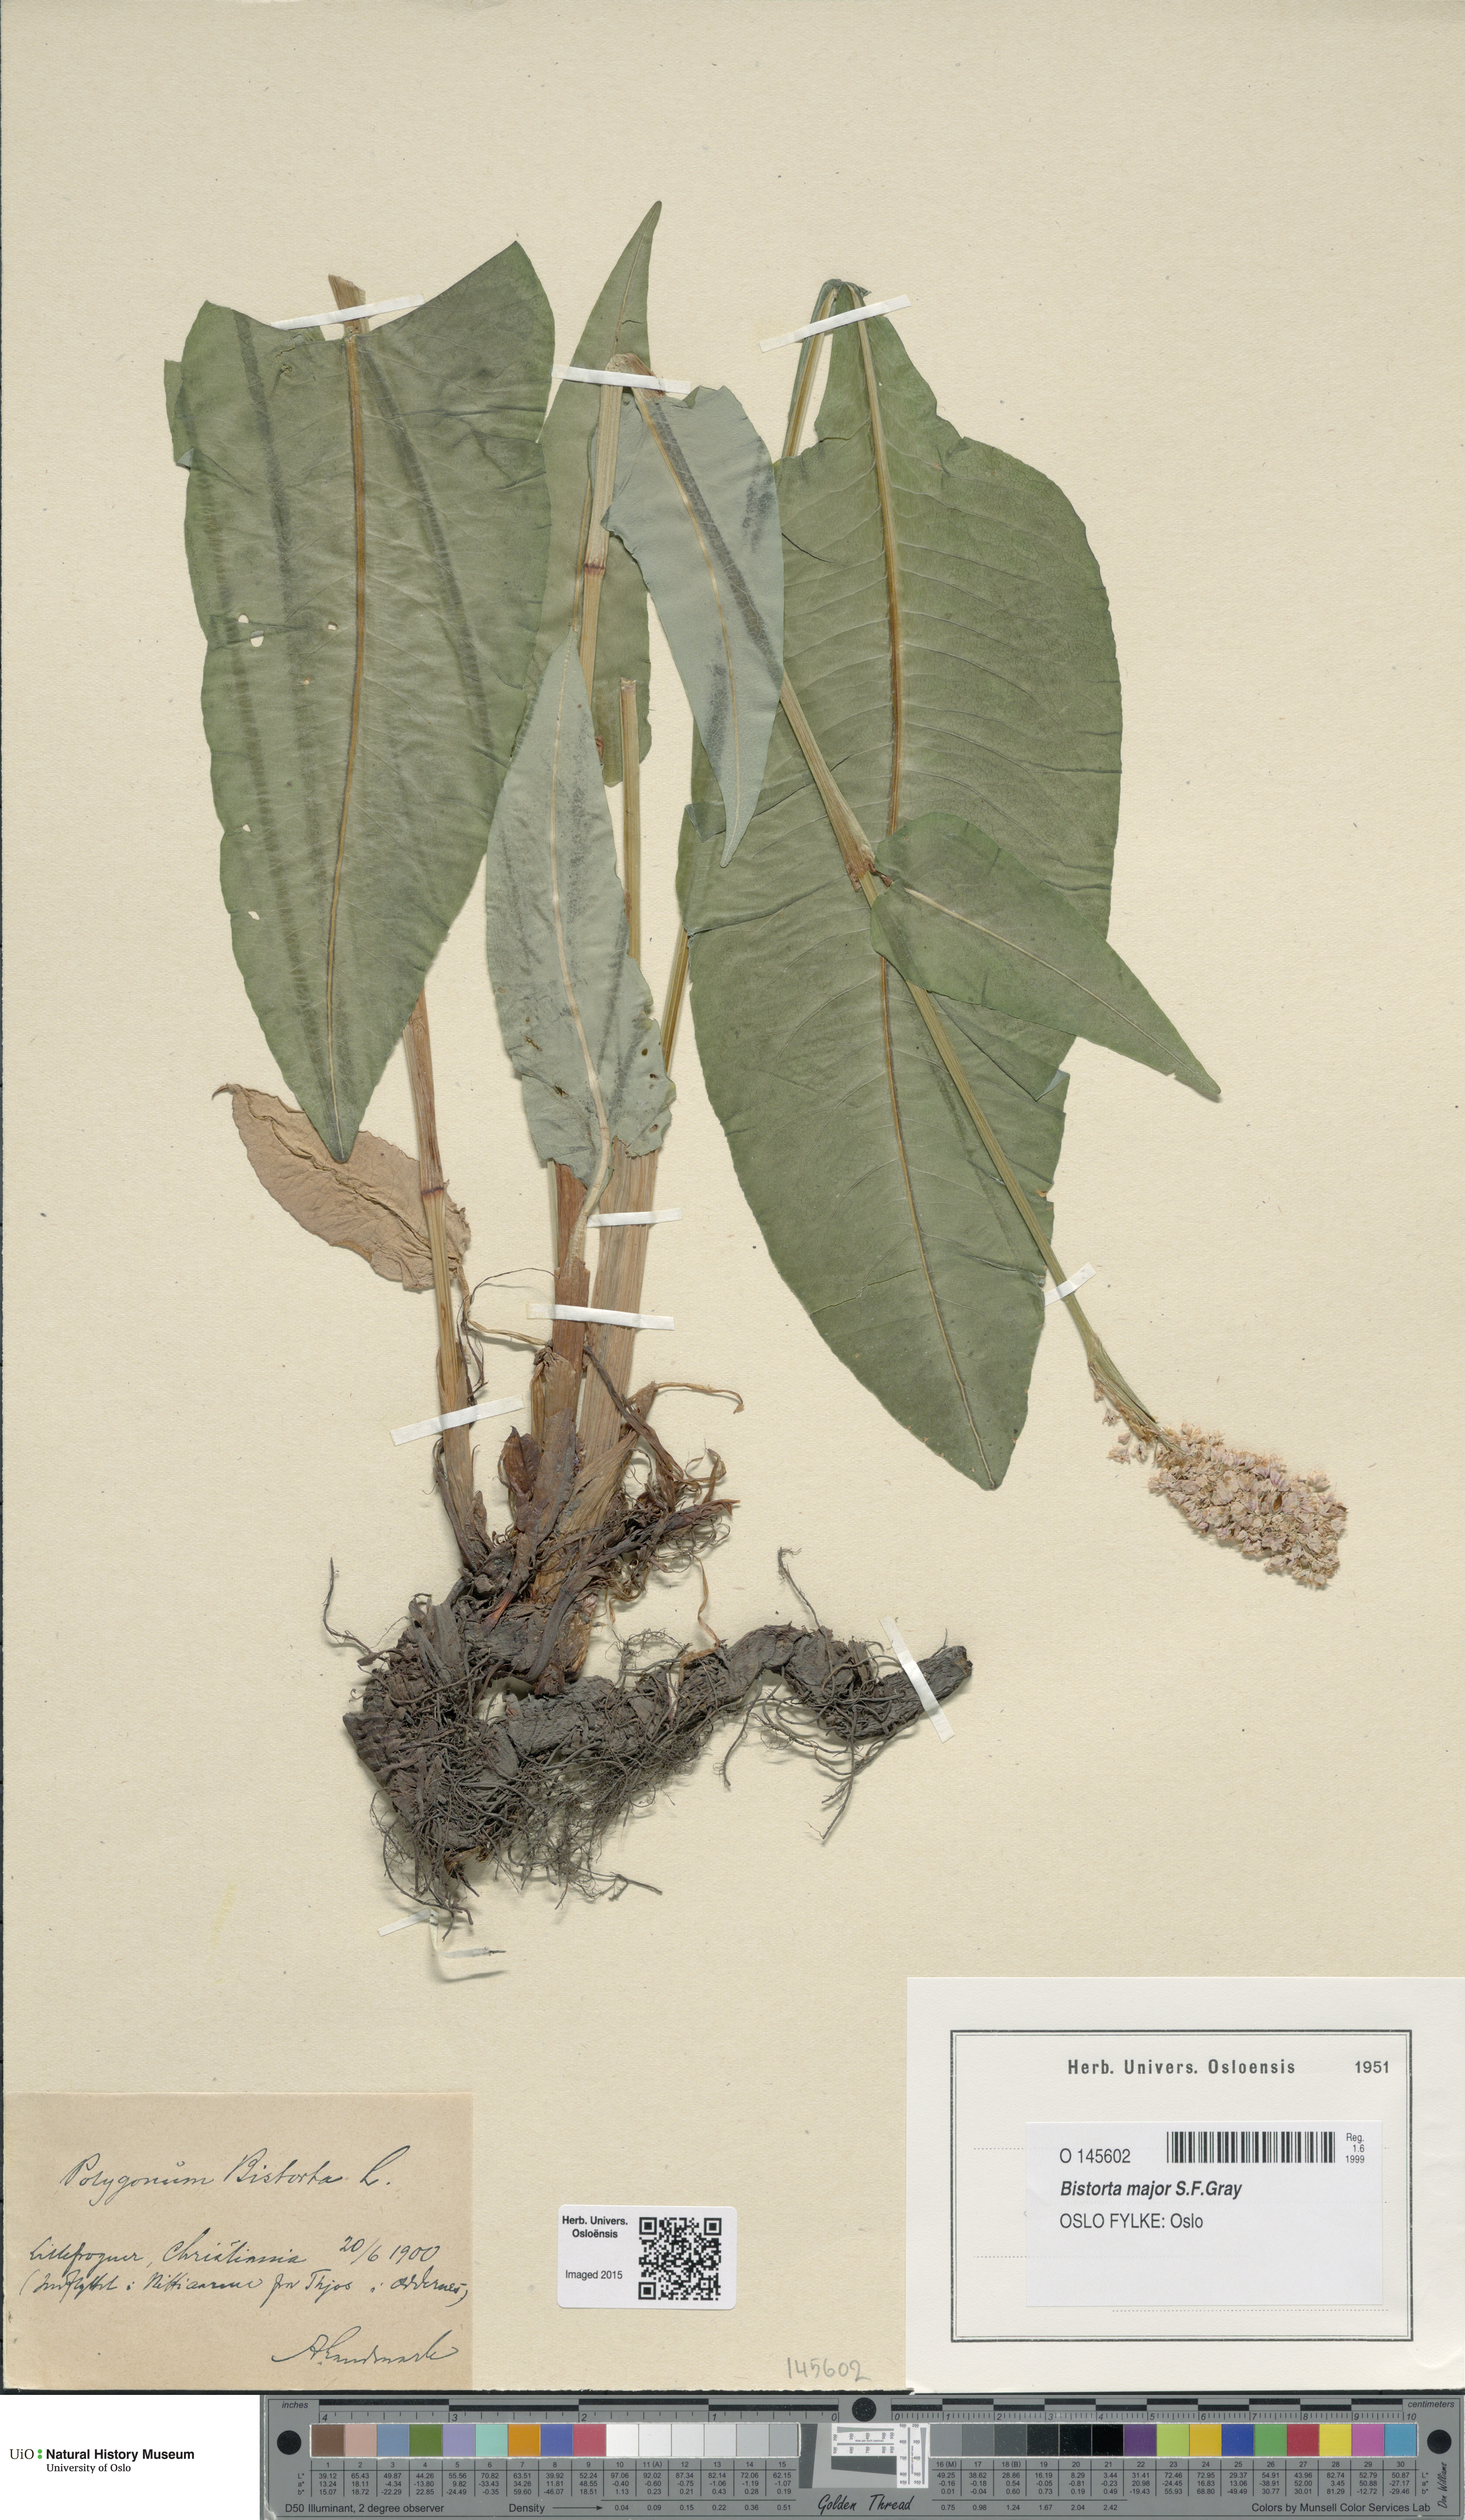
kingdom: Plantae
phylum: Tracheophyta
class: Magnoliopsida
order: Caryophyllales
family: Polygonaceae
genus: Bistorta
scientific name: Bistorta officinalis
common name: Common bistort
